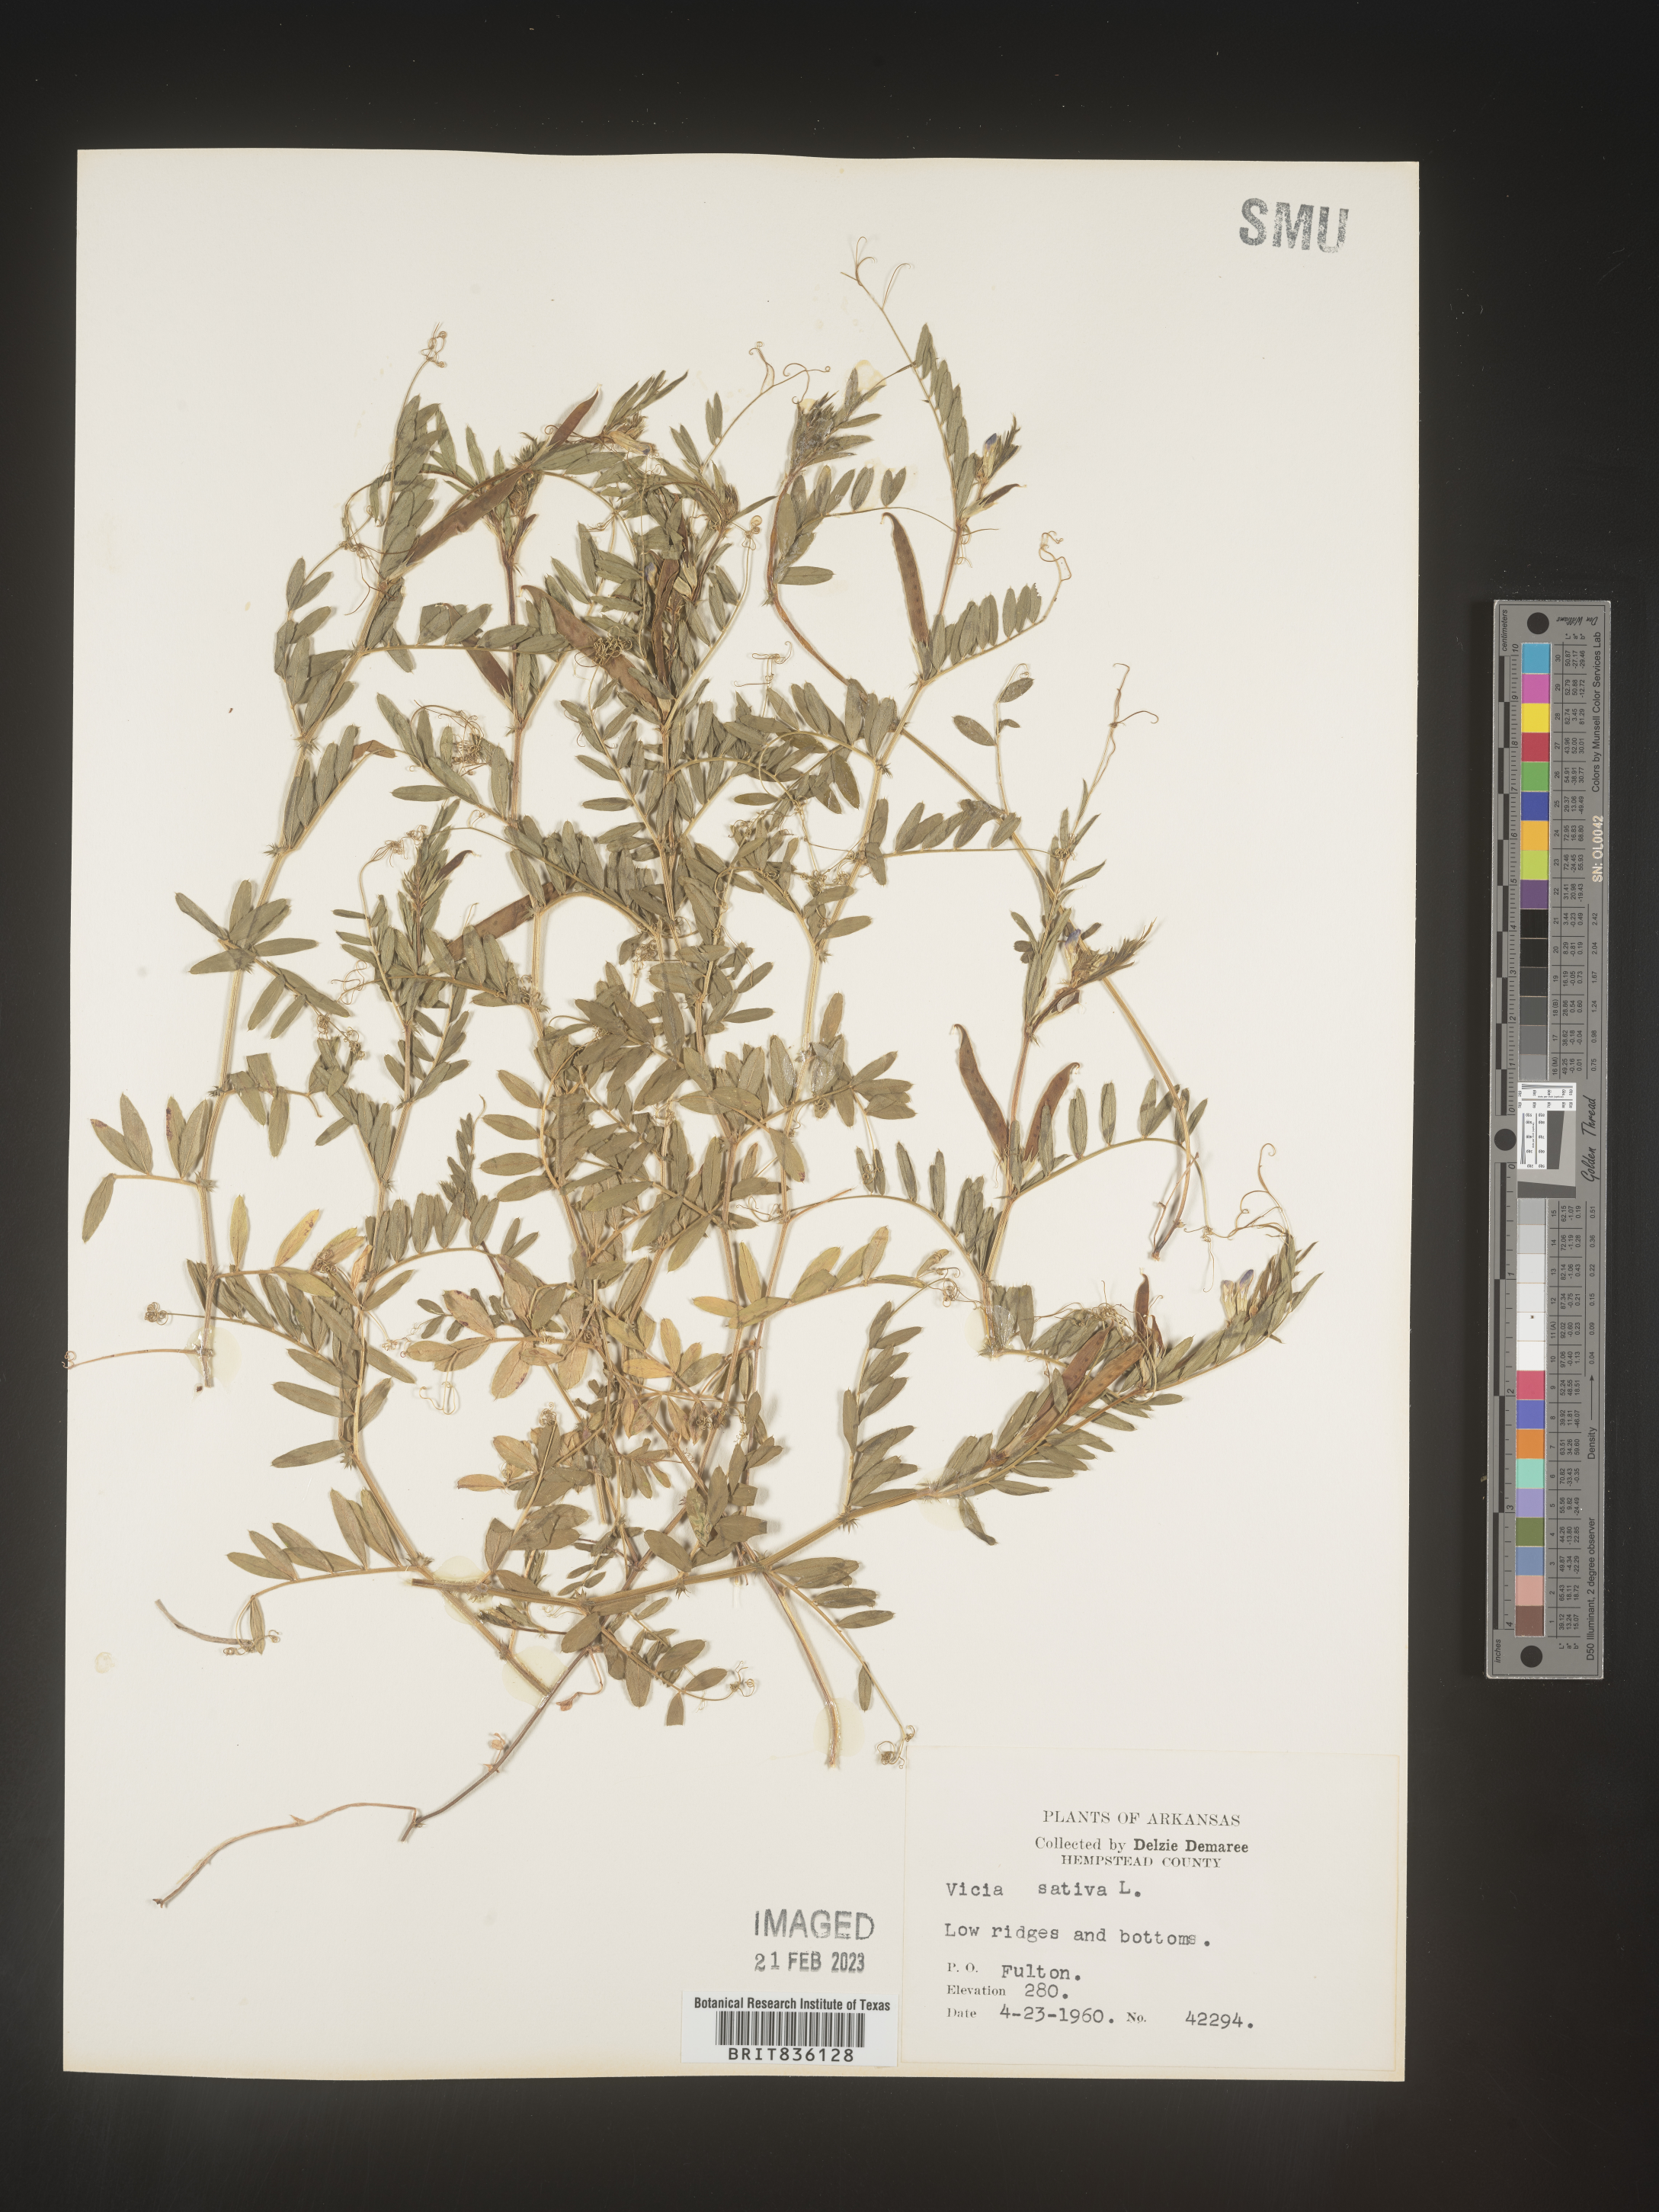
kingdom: Plantae
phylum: Tracheophyta
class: Magnoliopsida
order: Fabales
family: Fabaceae
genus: Vicia
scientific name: Vicia sativa
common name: Garden vetch
